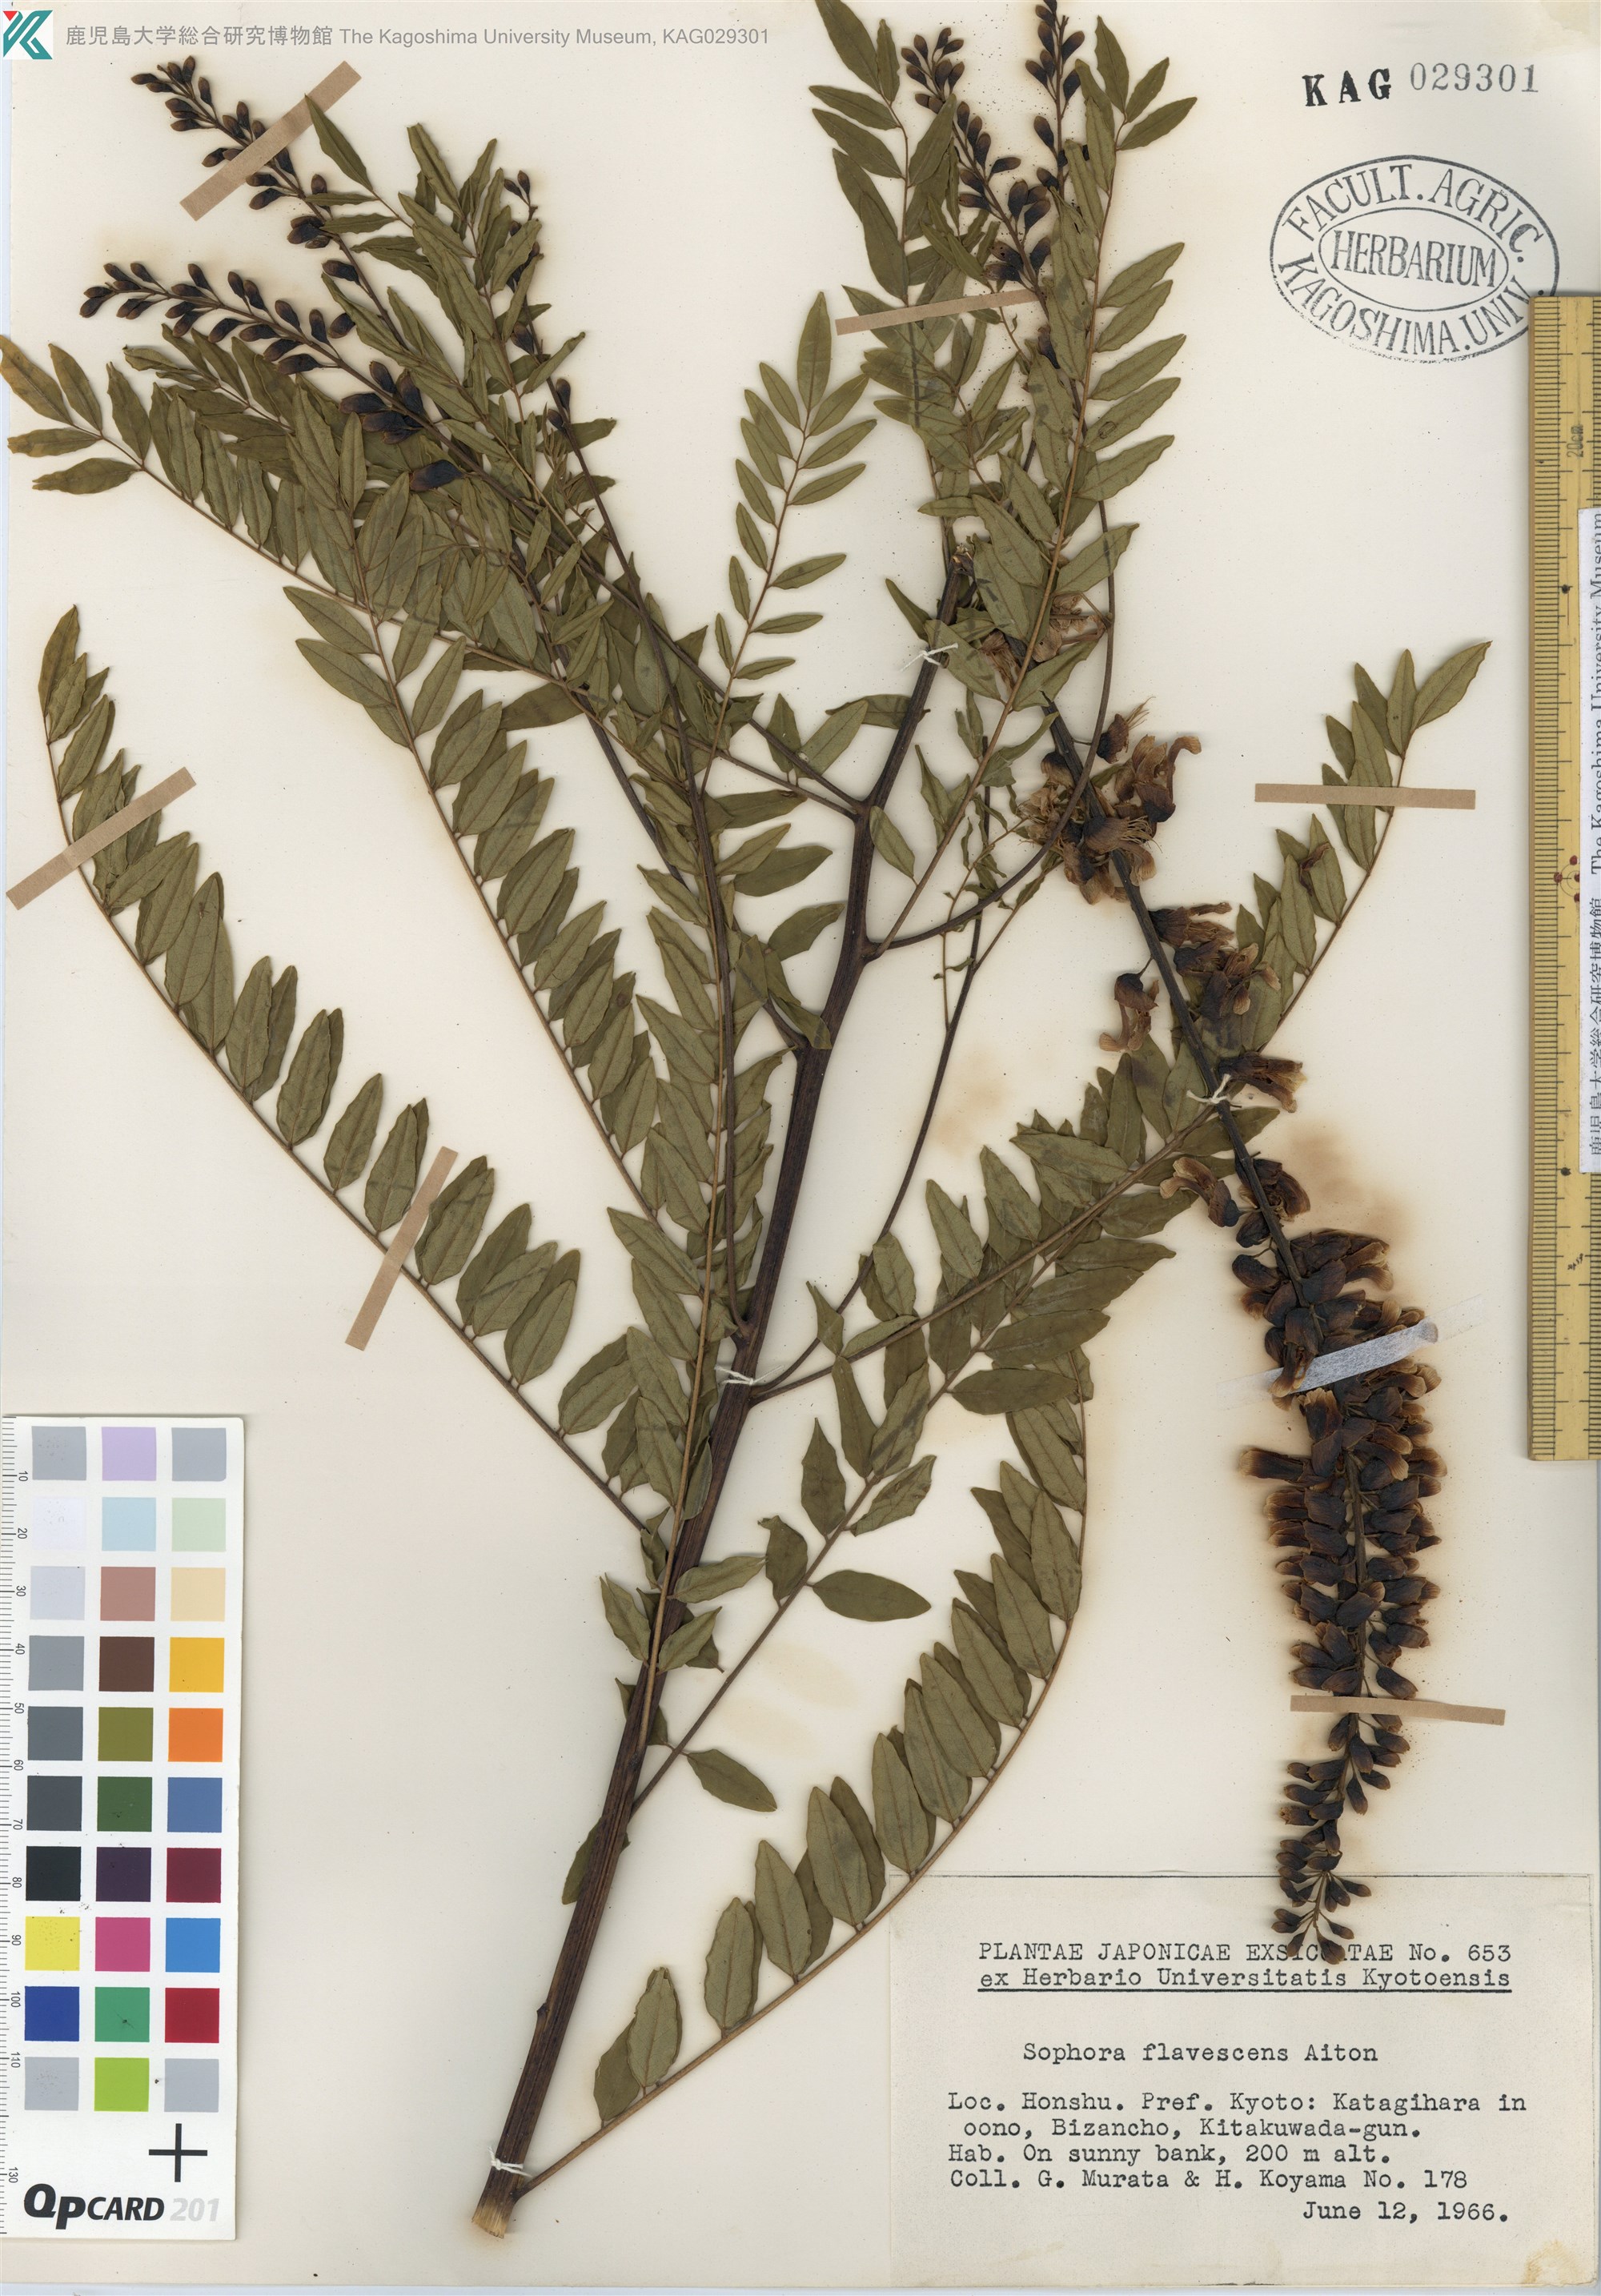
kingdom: Plantae
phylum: Tracheophyta
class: Magnoliopsida
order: Fabales
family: Fabaceae
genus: Sophora
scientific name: Sophora flavescens
